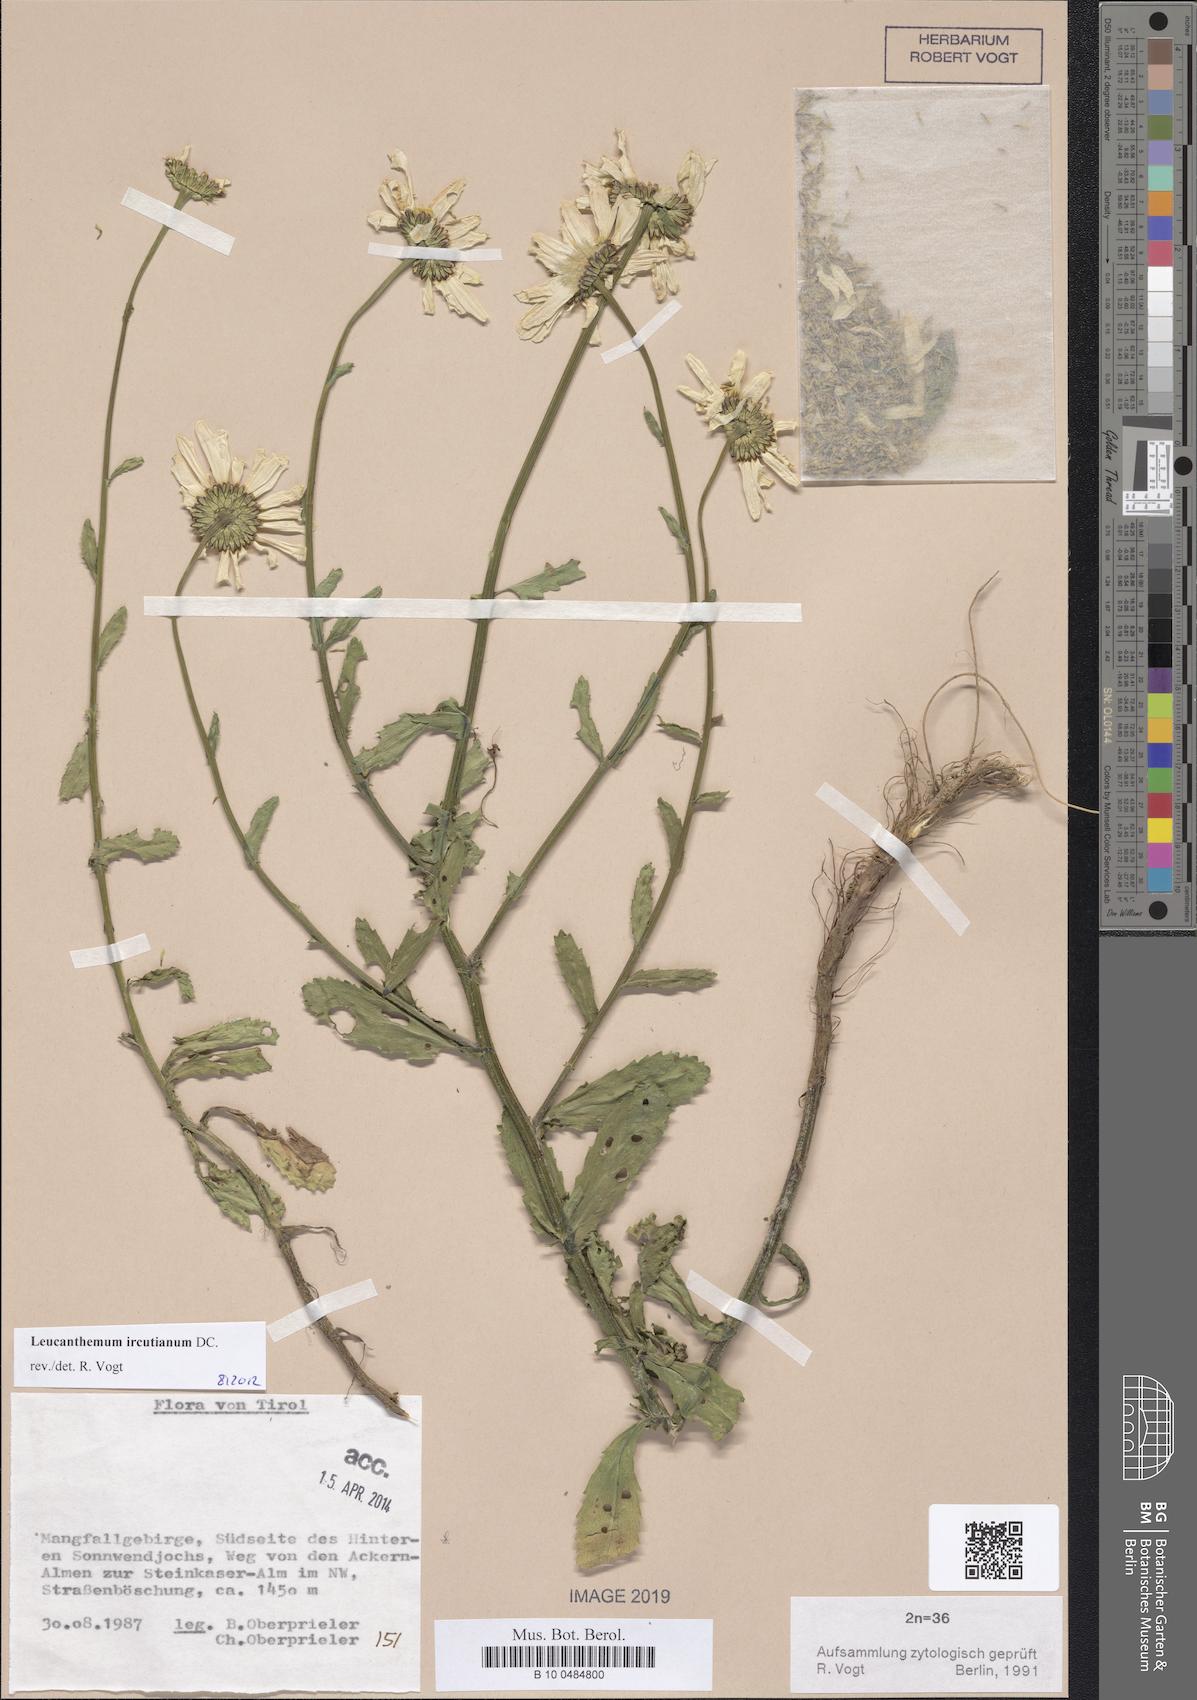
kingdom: Plantae
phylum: Tracheophyta
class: Magnoliopsida
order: Asterales
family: Asteraceae
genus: Leucanthemum
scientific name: Leucanthemum ircutianum
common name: Daisy
